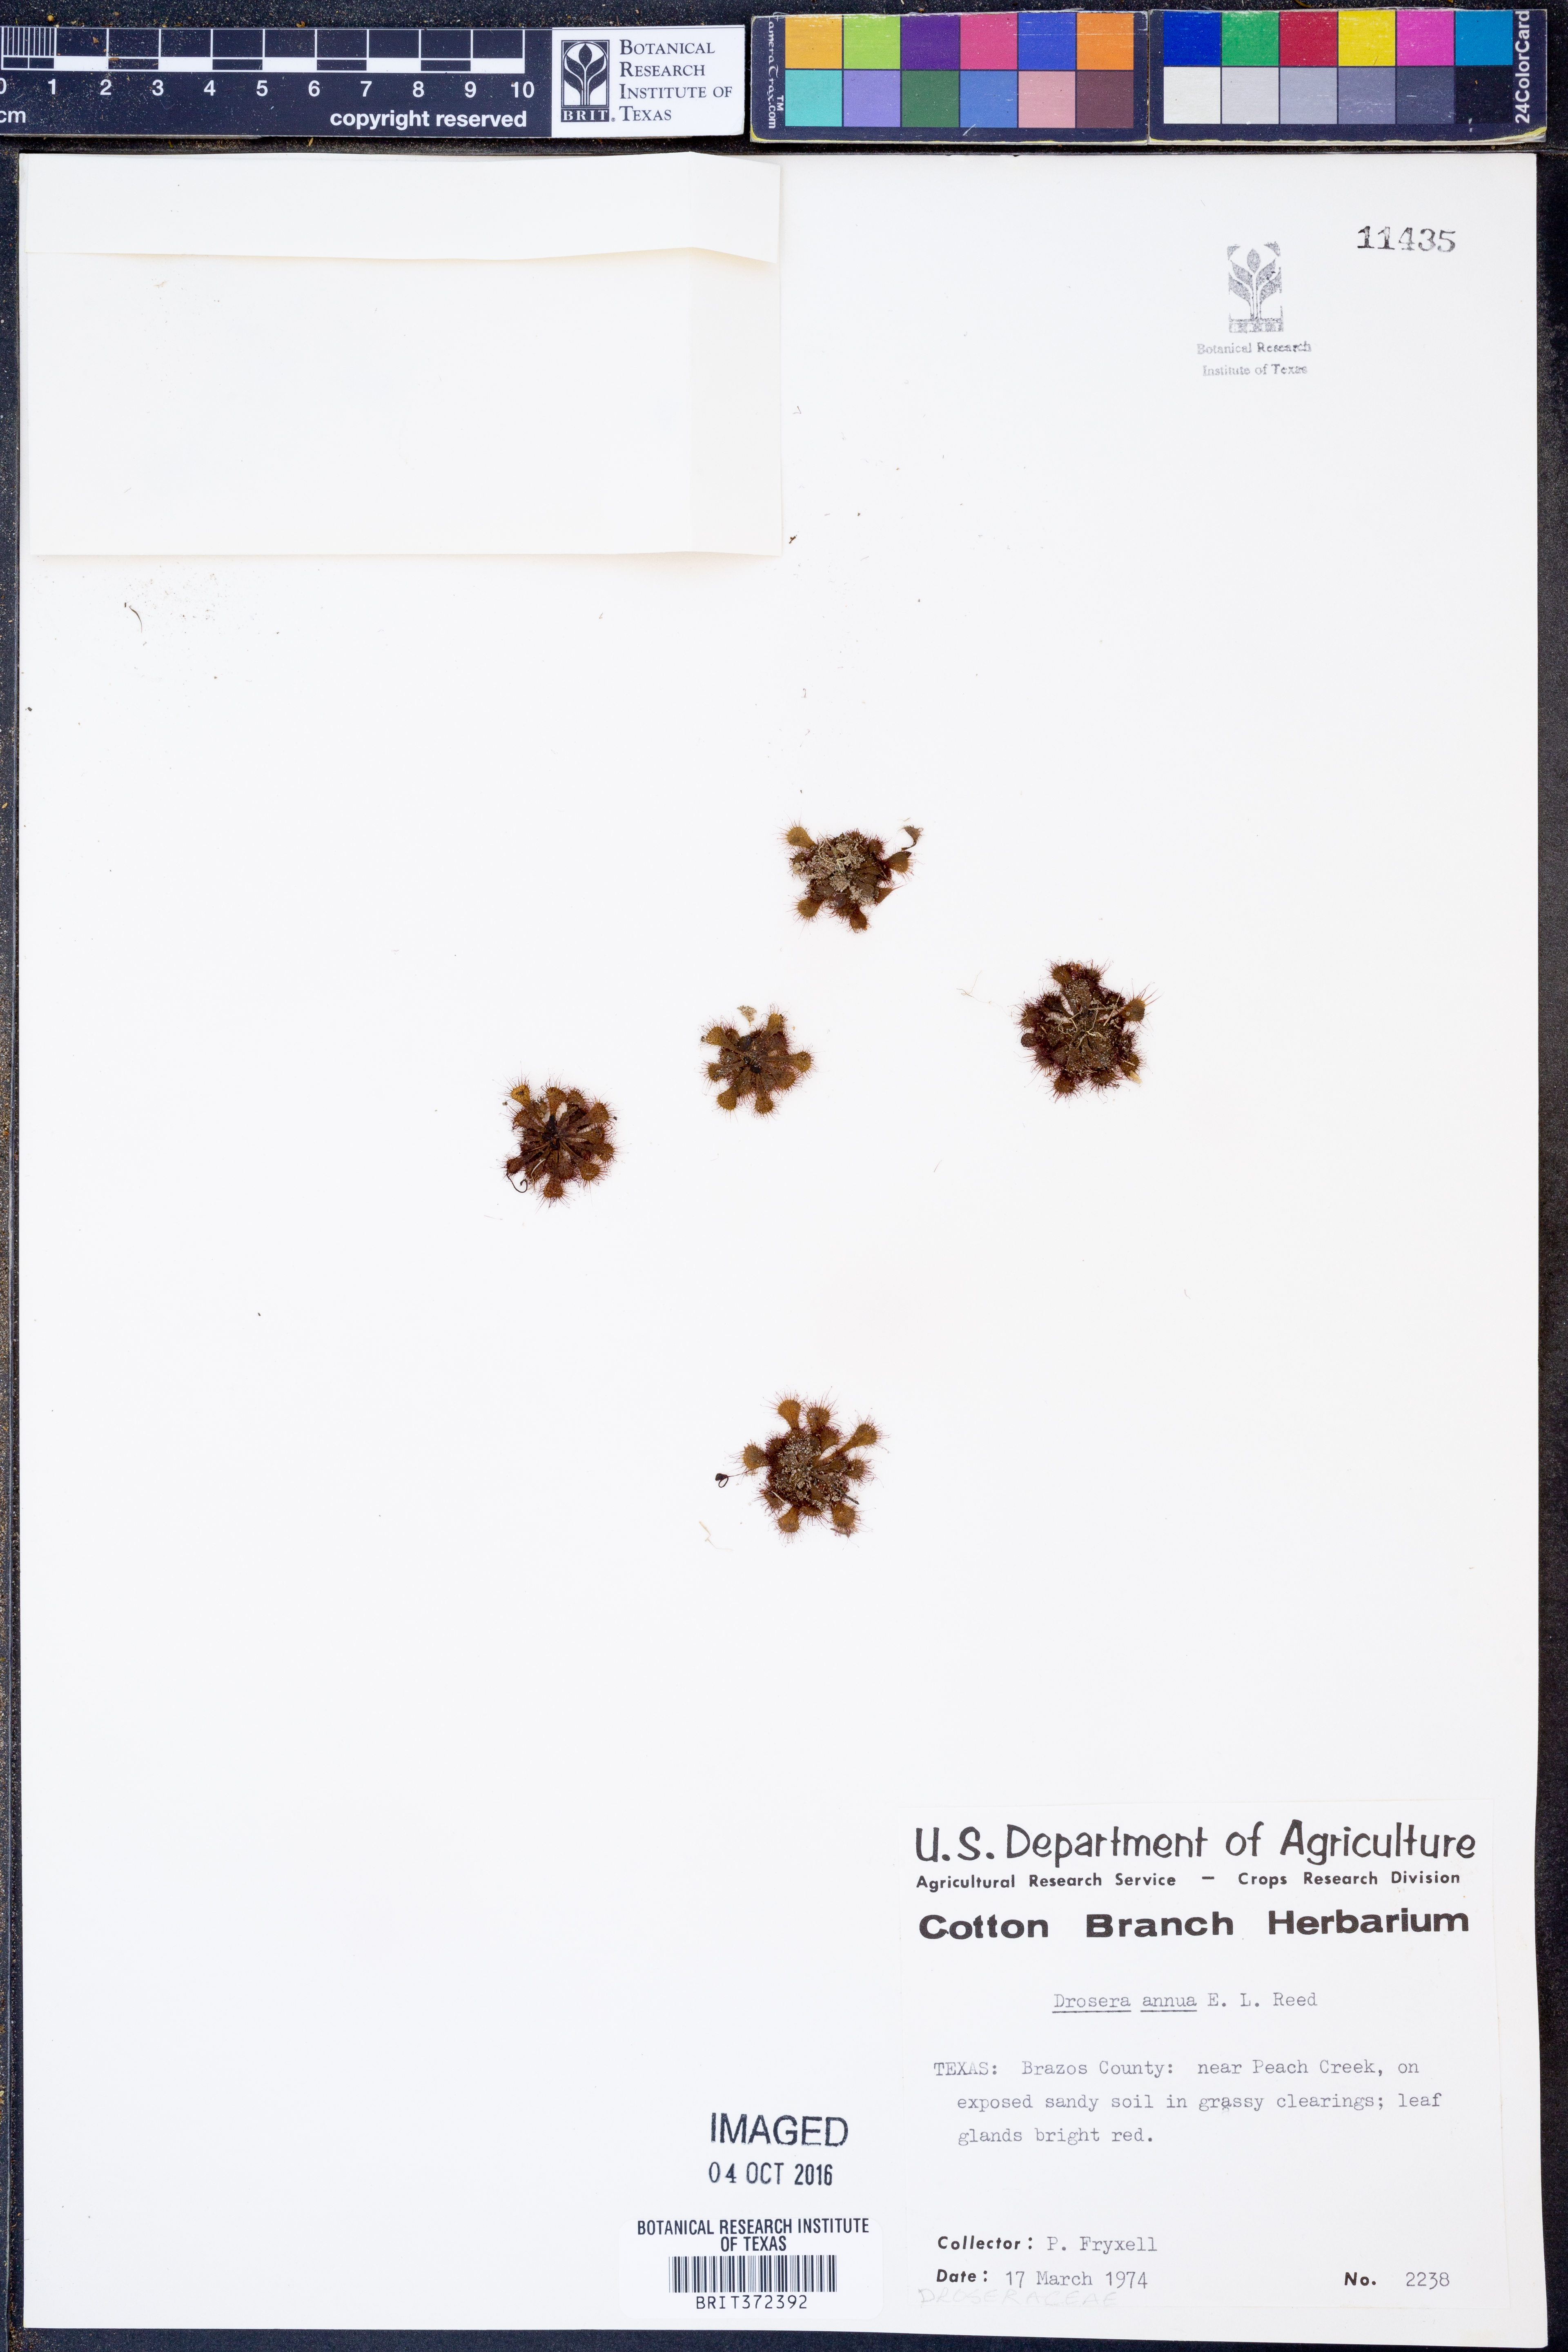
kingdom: Plantae
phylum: Tracheophyta
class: Magnoliopsida
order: Caryophyllales
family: Droseraceae
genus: Drosera
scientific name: Drosera brevifolia
